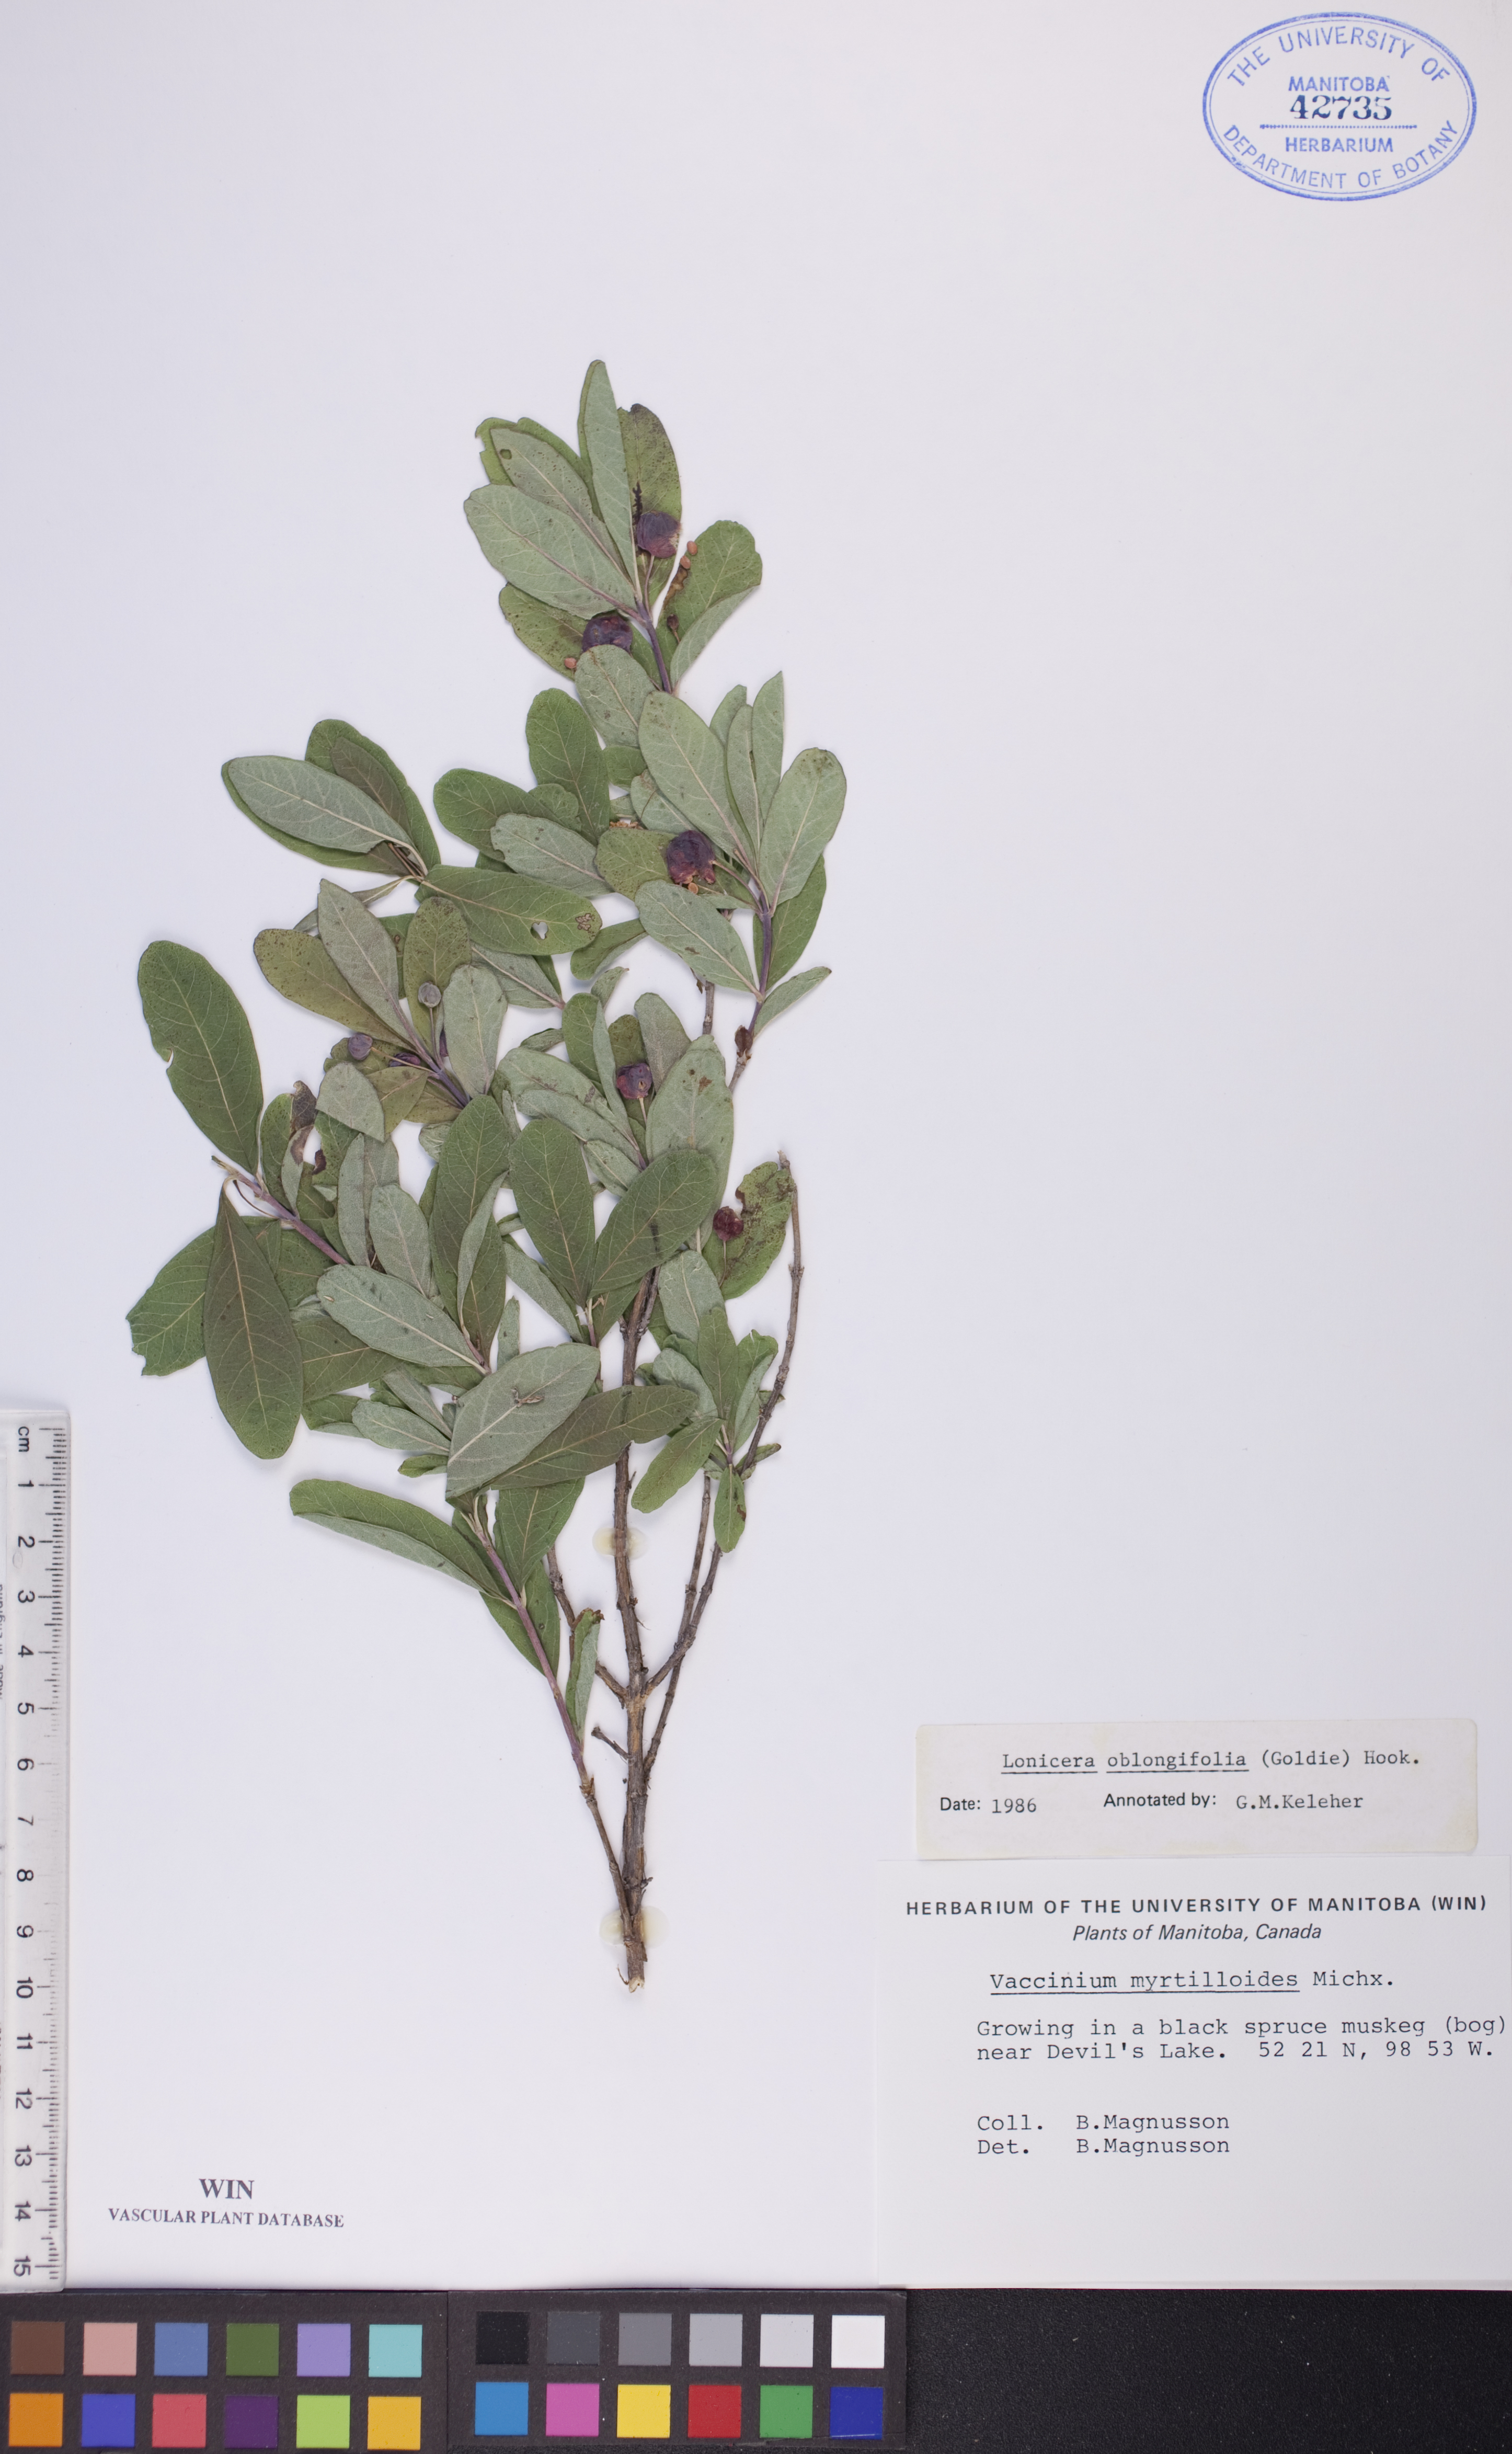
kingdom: Plantae
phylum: Tracheophyta
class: Magnoliopsida
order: Dipsacales
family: Caprifoliaceae
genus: Lonicera
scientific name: Lonicera oblongifolia
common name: Swamp fly honeysuckle
